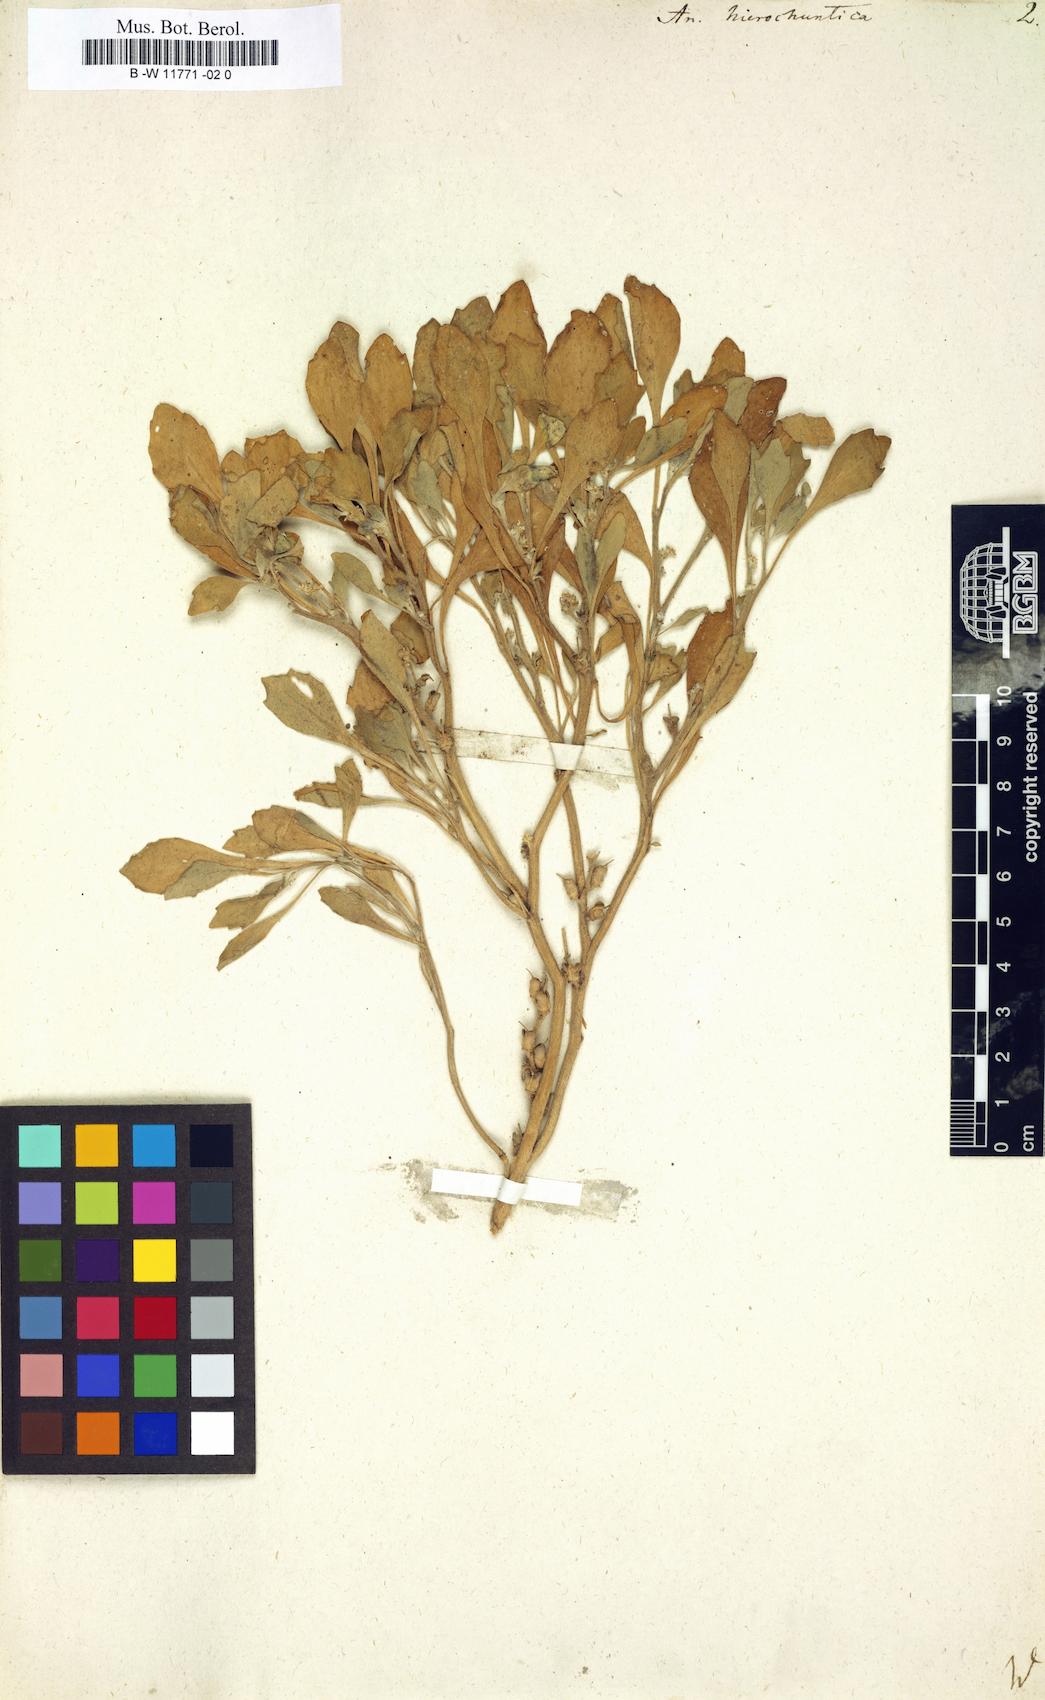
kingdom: Plantae
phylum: Tracheophyta
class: Magnoliopsida
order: Brassicales
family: Brassicaceae
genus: Anastatica
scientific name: Anastatica hierochuntica
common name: Rose-of-jericho
